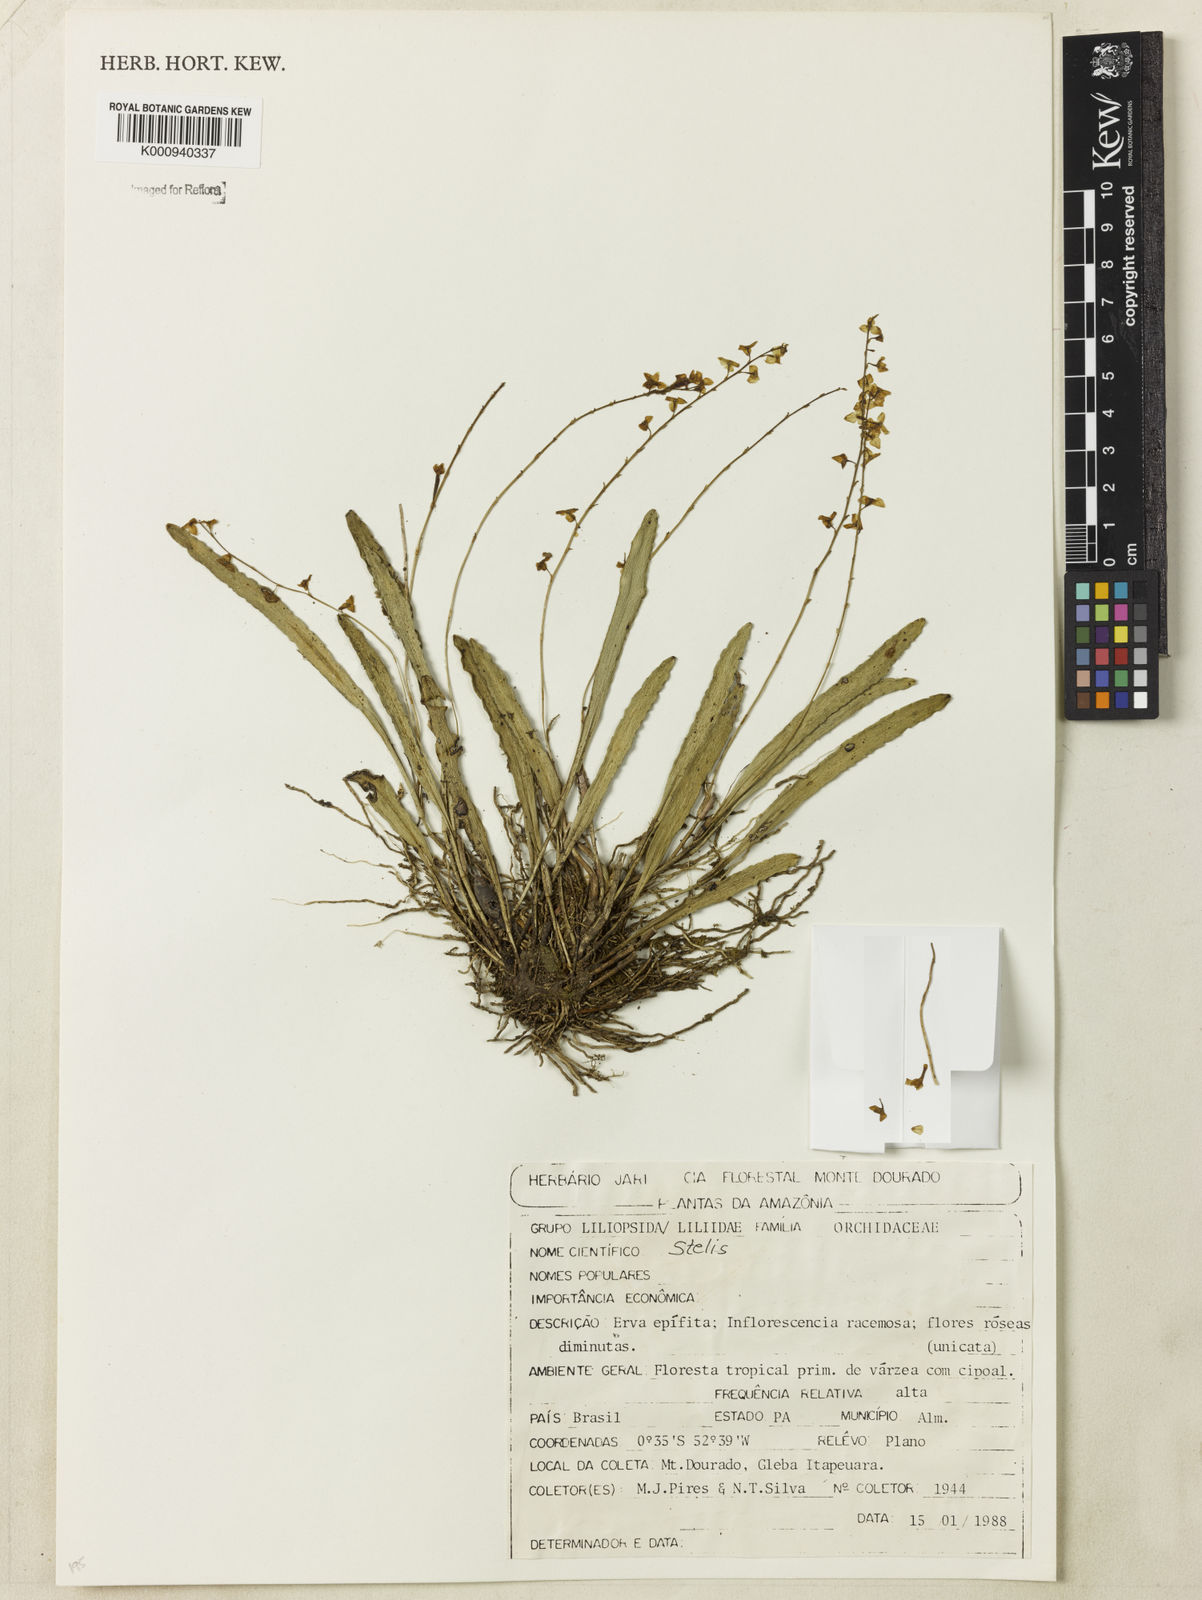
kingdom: Plantae
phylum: Tracheophyta
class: Liliopsida
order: Asparagales
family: Orchidaceae
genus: Stelis
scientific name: Stelis
